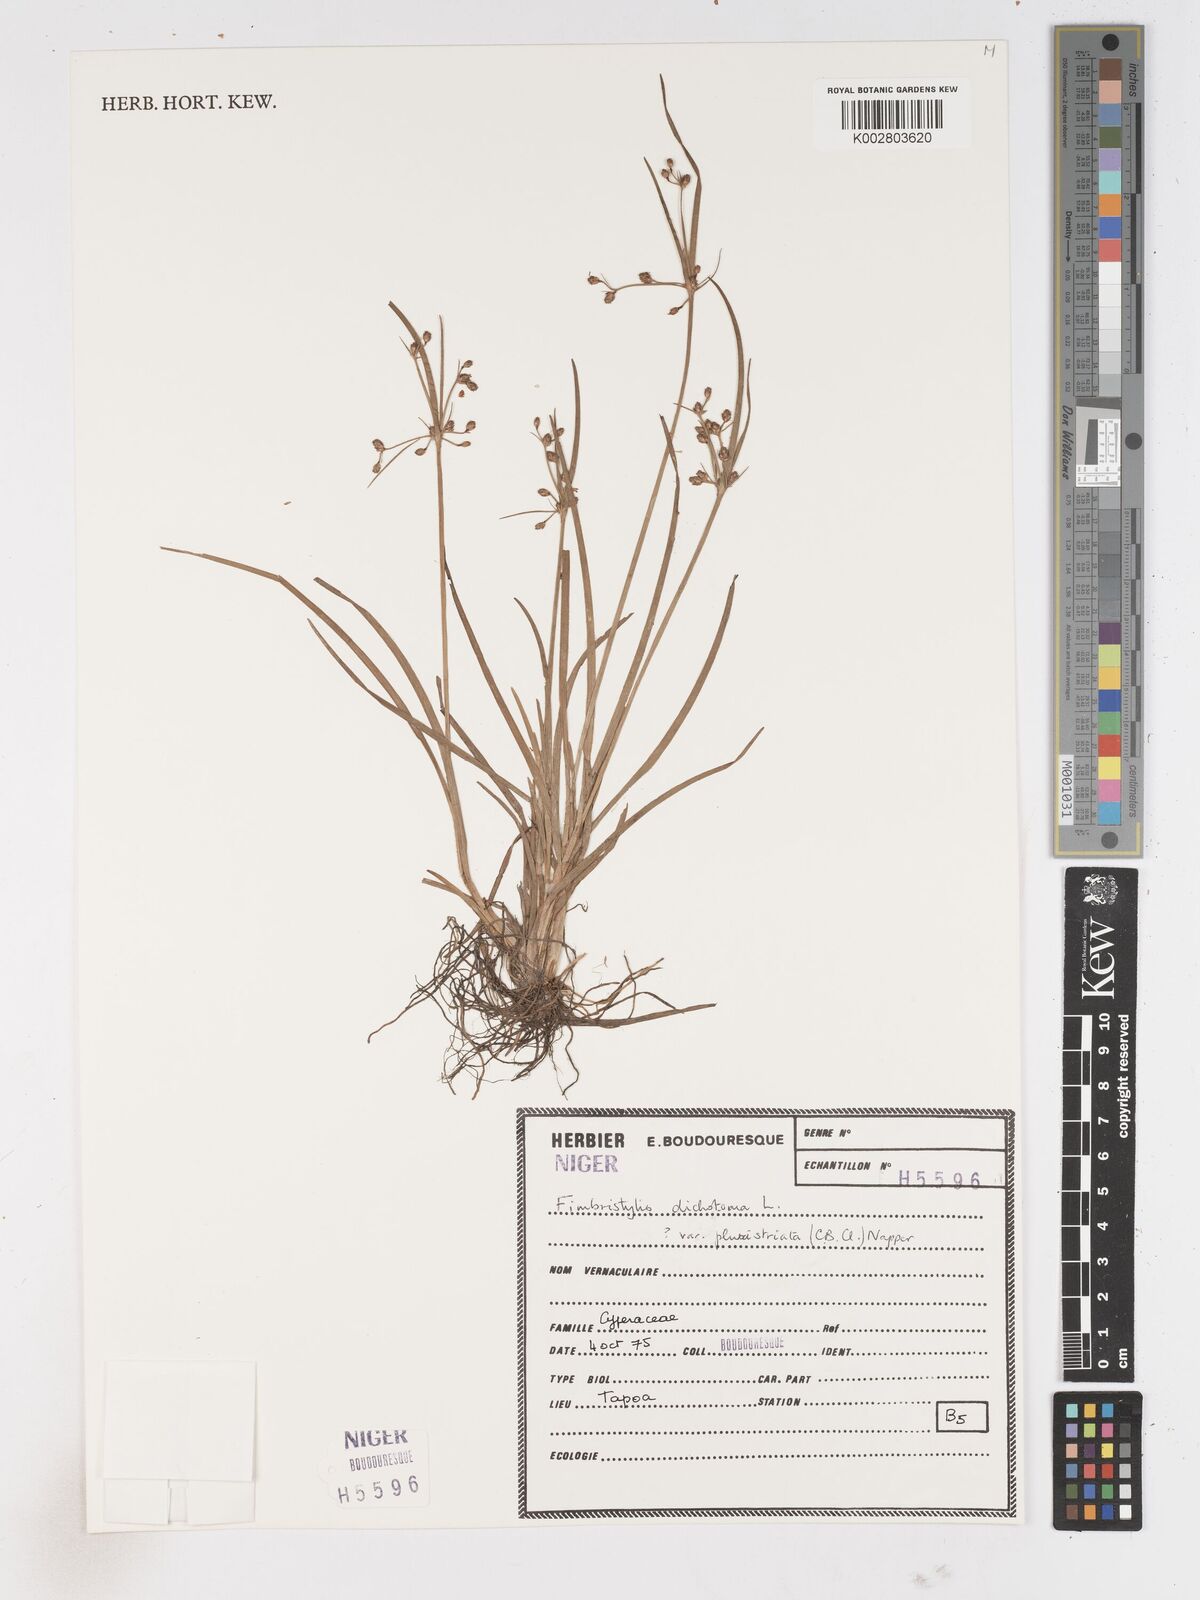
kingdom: Plantae
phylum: Tracheophyta
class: Liliopsida
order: Poales
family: Cyperaceae
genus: Fimbristylis
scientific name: Fimbristylis dichotoma
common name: Forked fimbry
